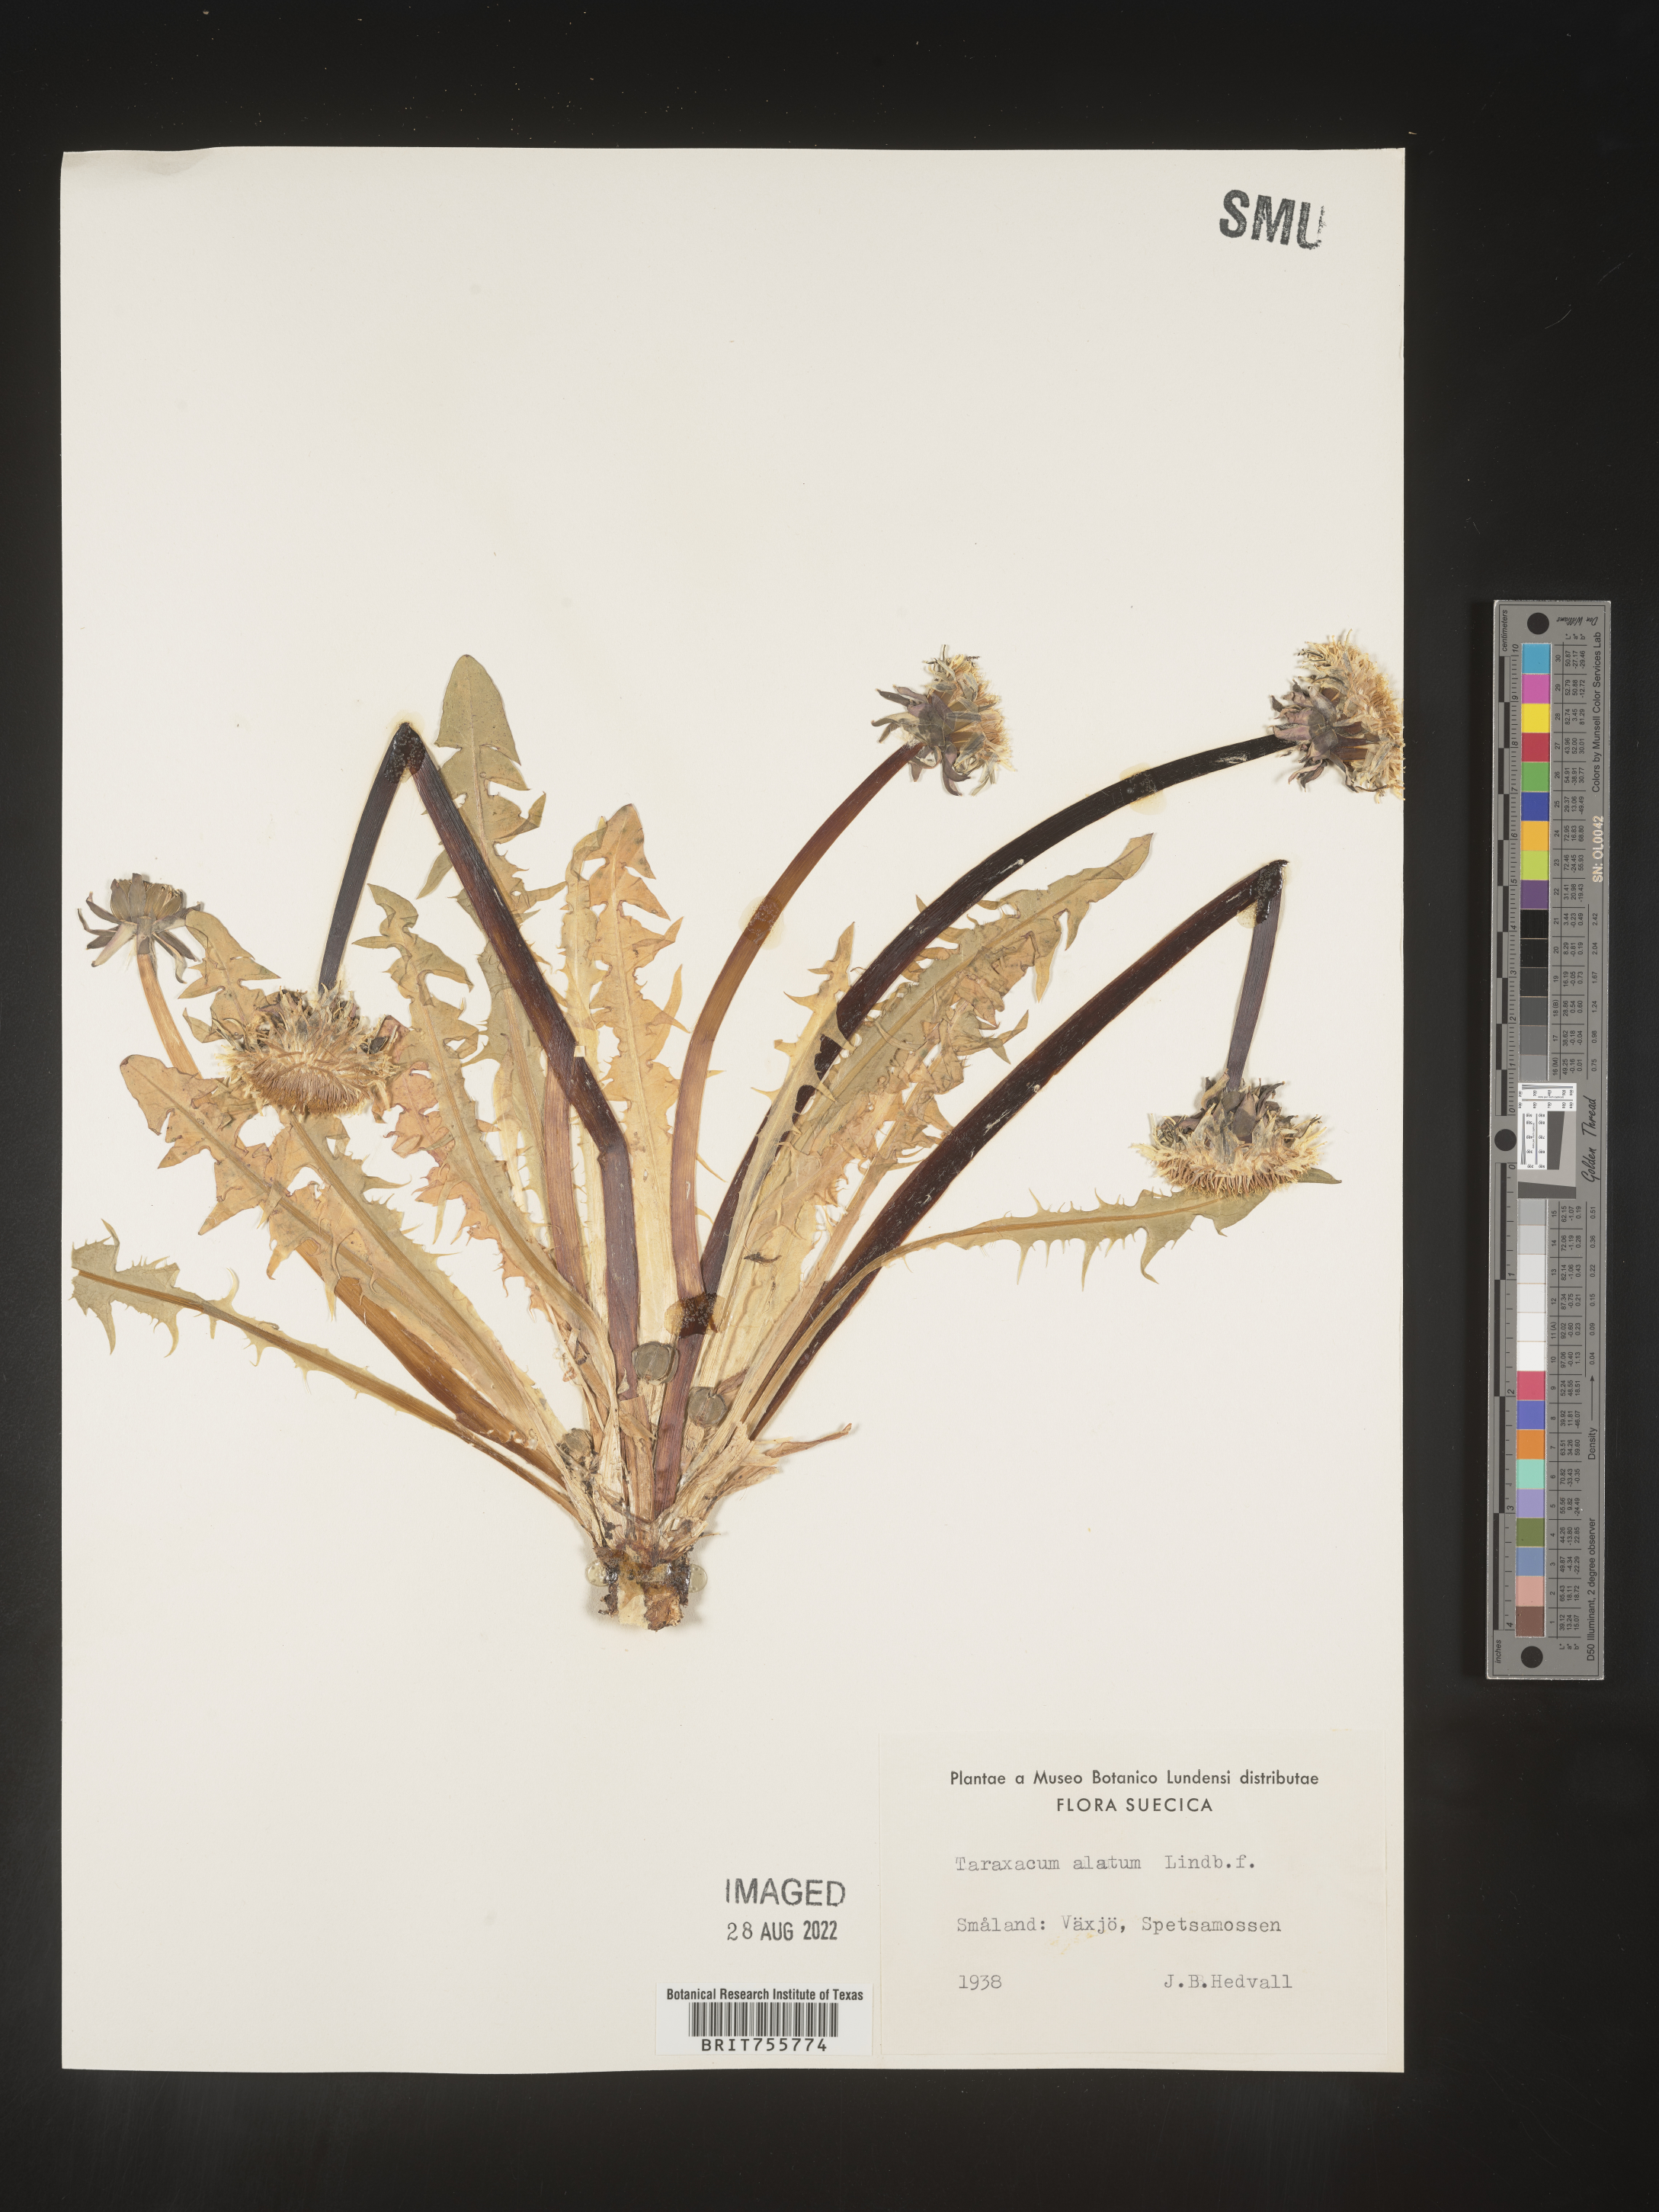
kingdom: Plantae
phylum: Tracheophyta
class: Magnoliopsida
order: Asterales
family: Asteraceae
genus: Taraxacum
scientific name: Taraxacum
